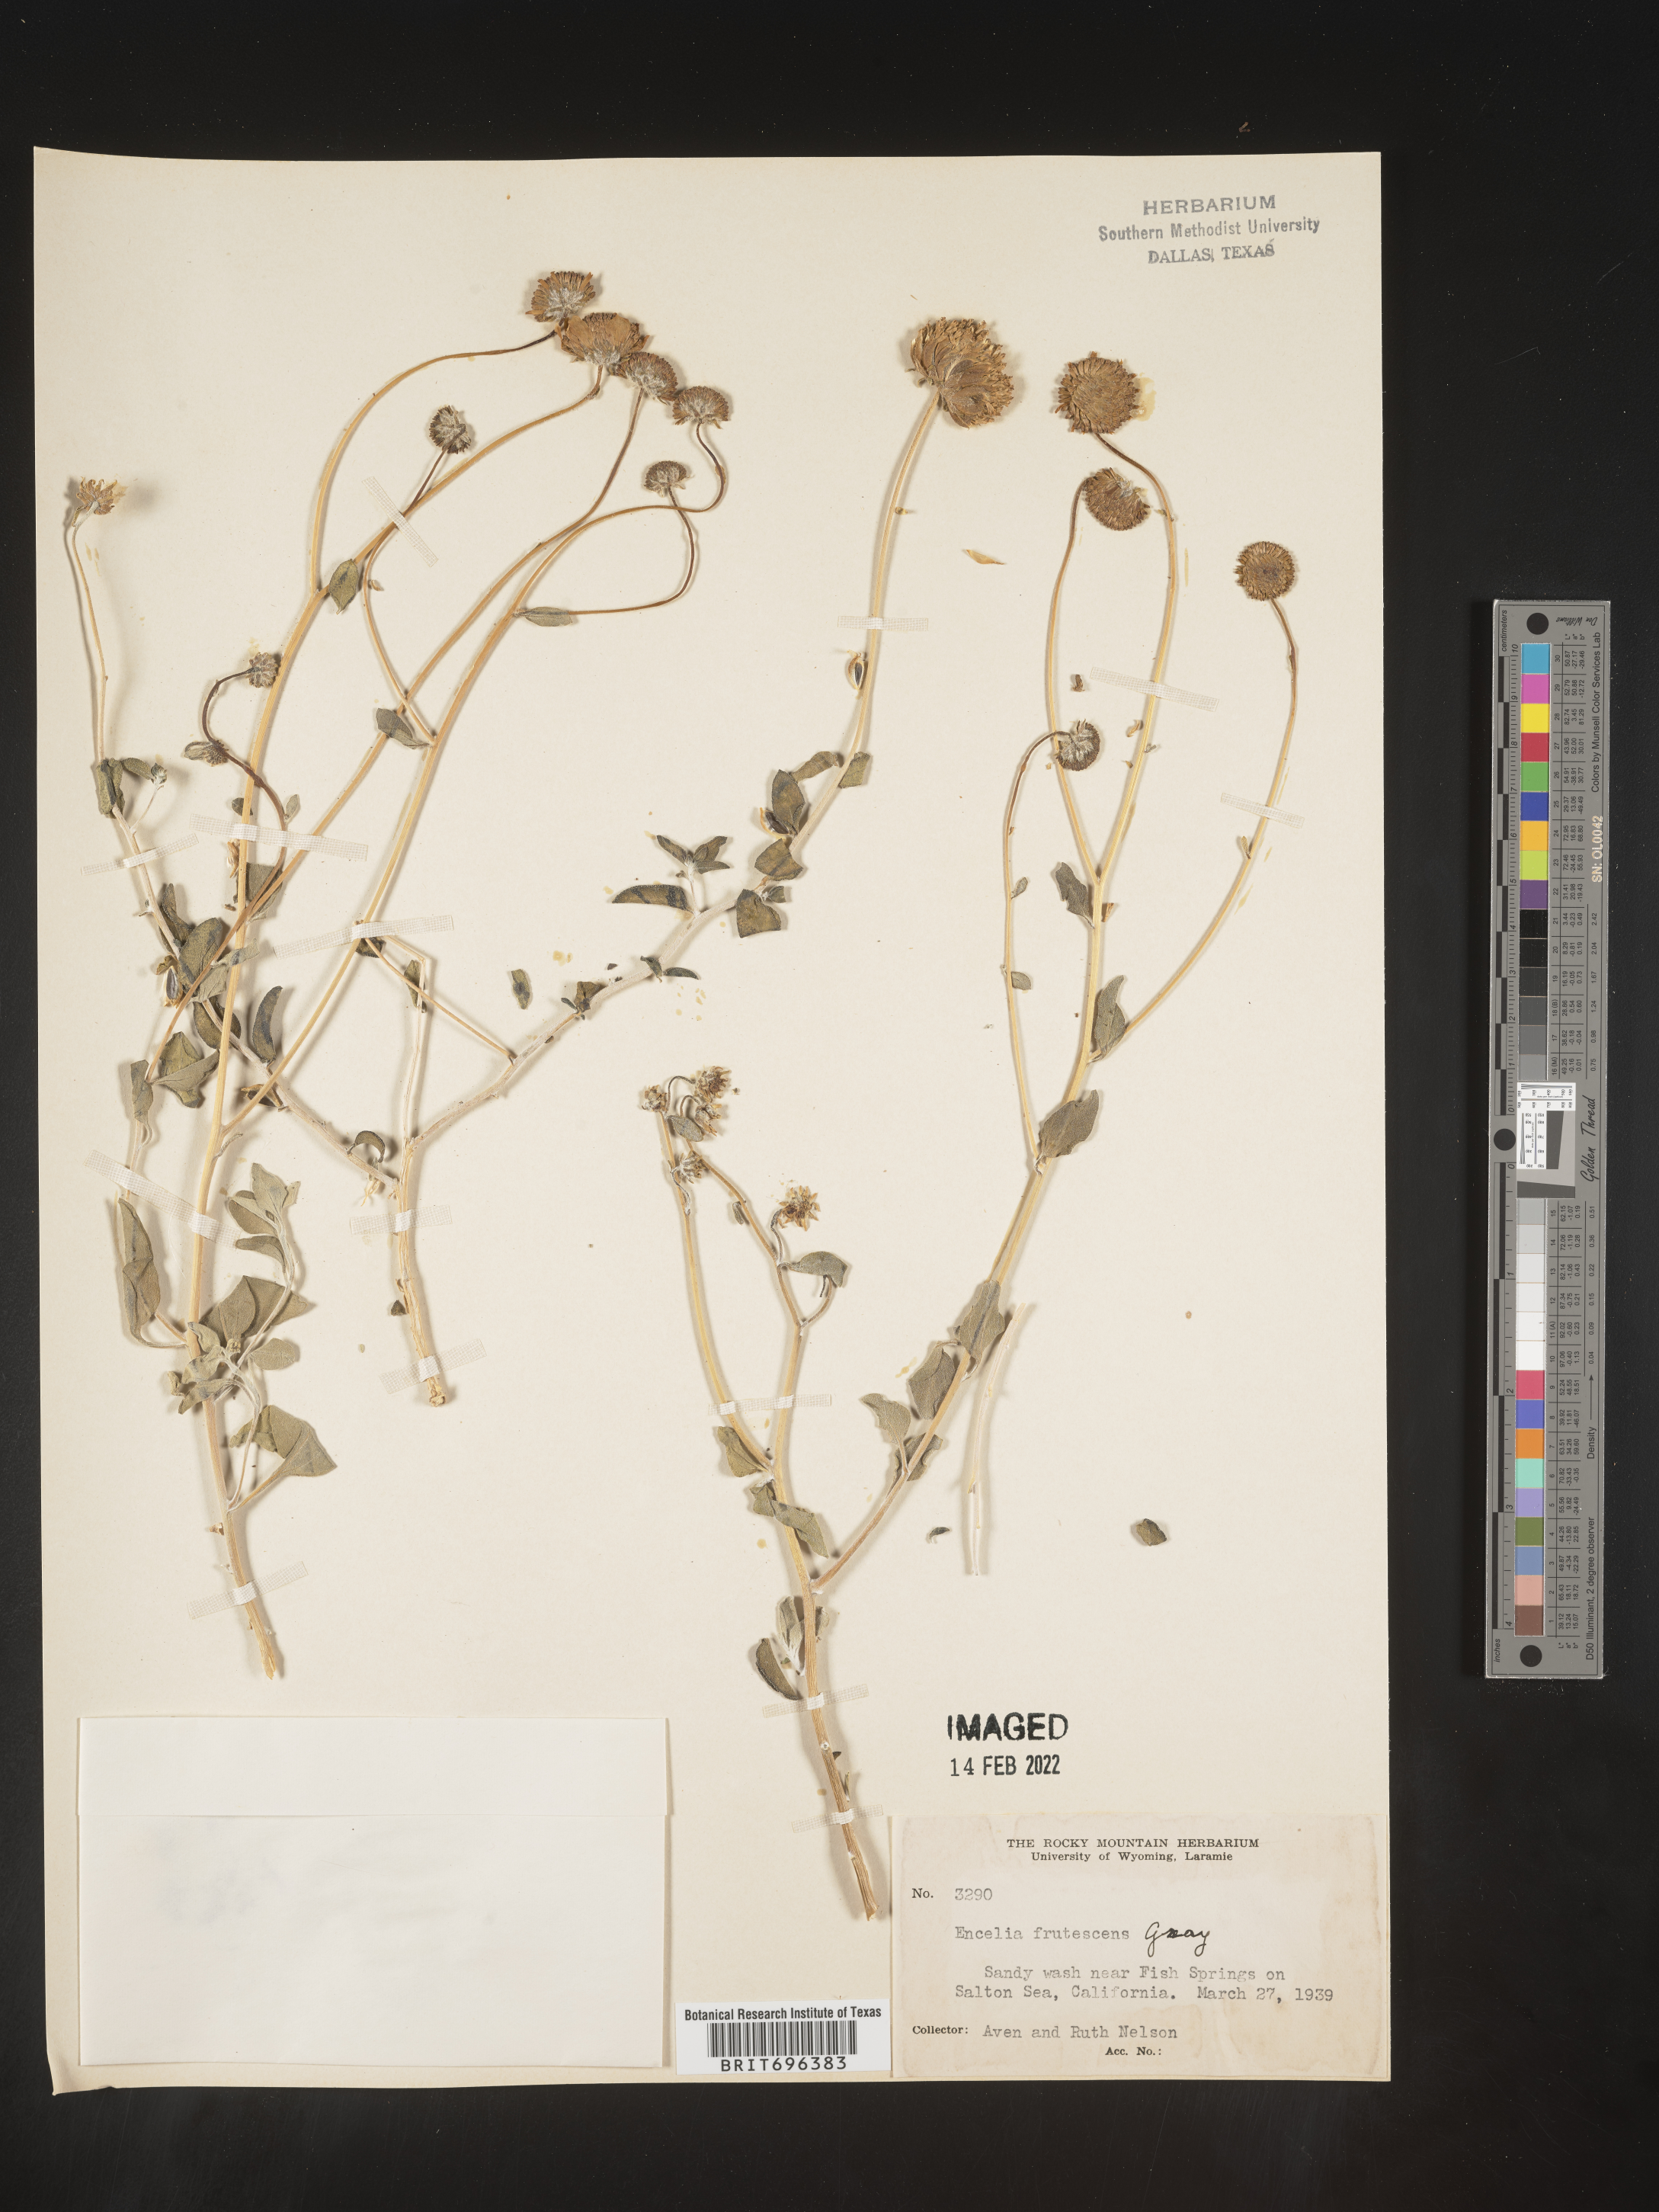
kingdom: Plantae
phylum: Tracheophyta
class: Magnoliopsida
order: Asterales
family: Asteraceae
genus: Encelia
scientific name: Encelia frutescens
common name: Bush encelia
